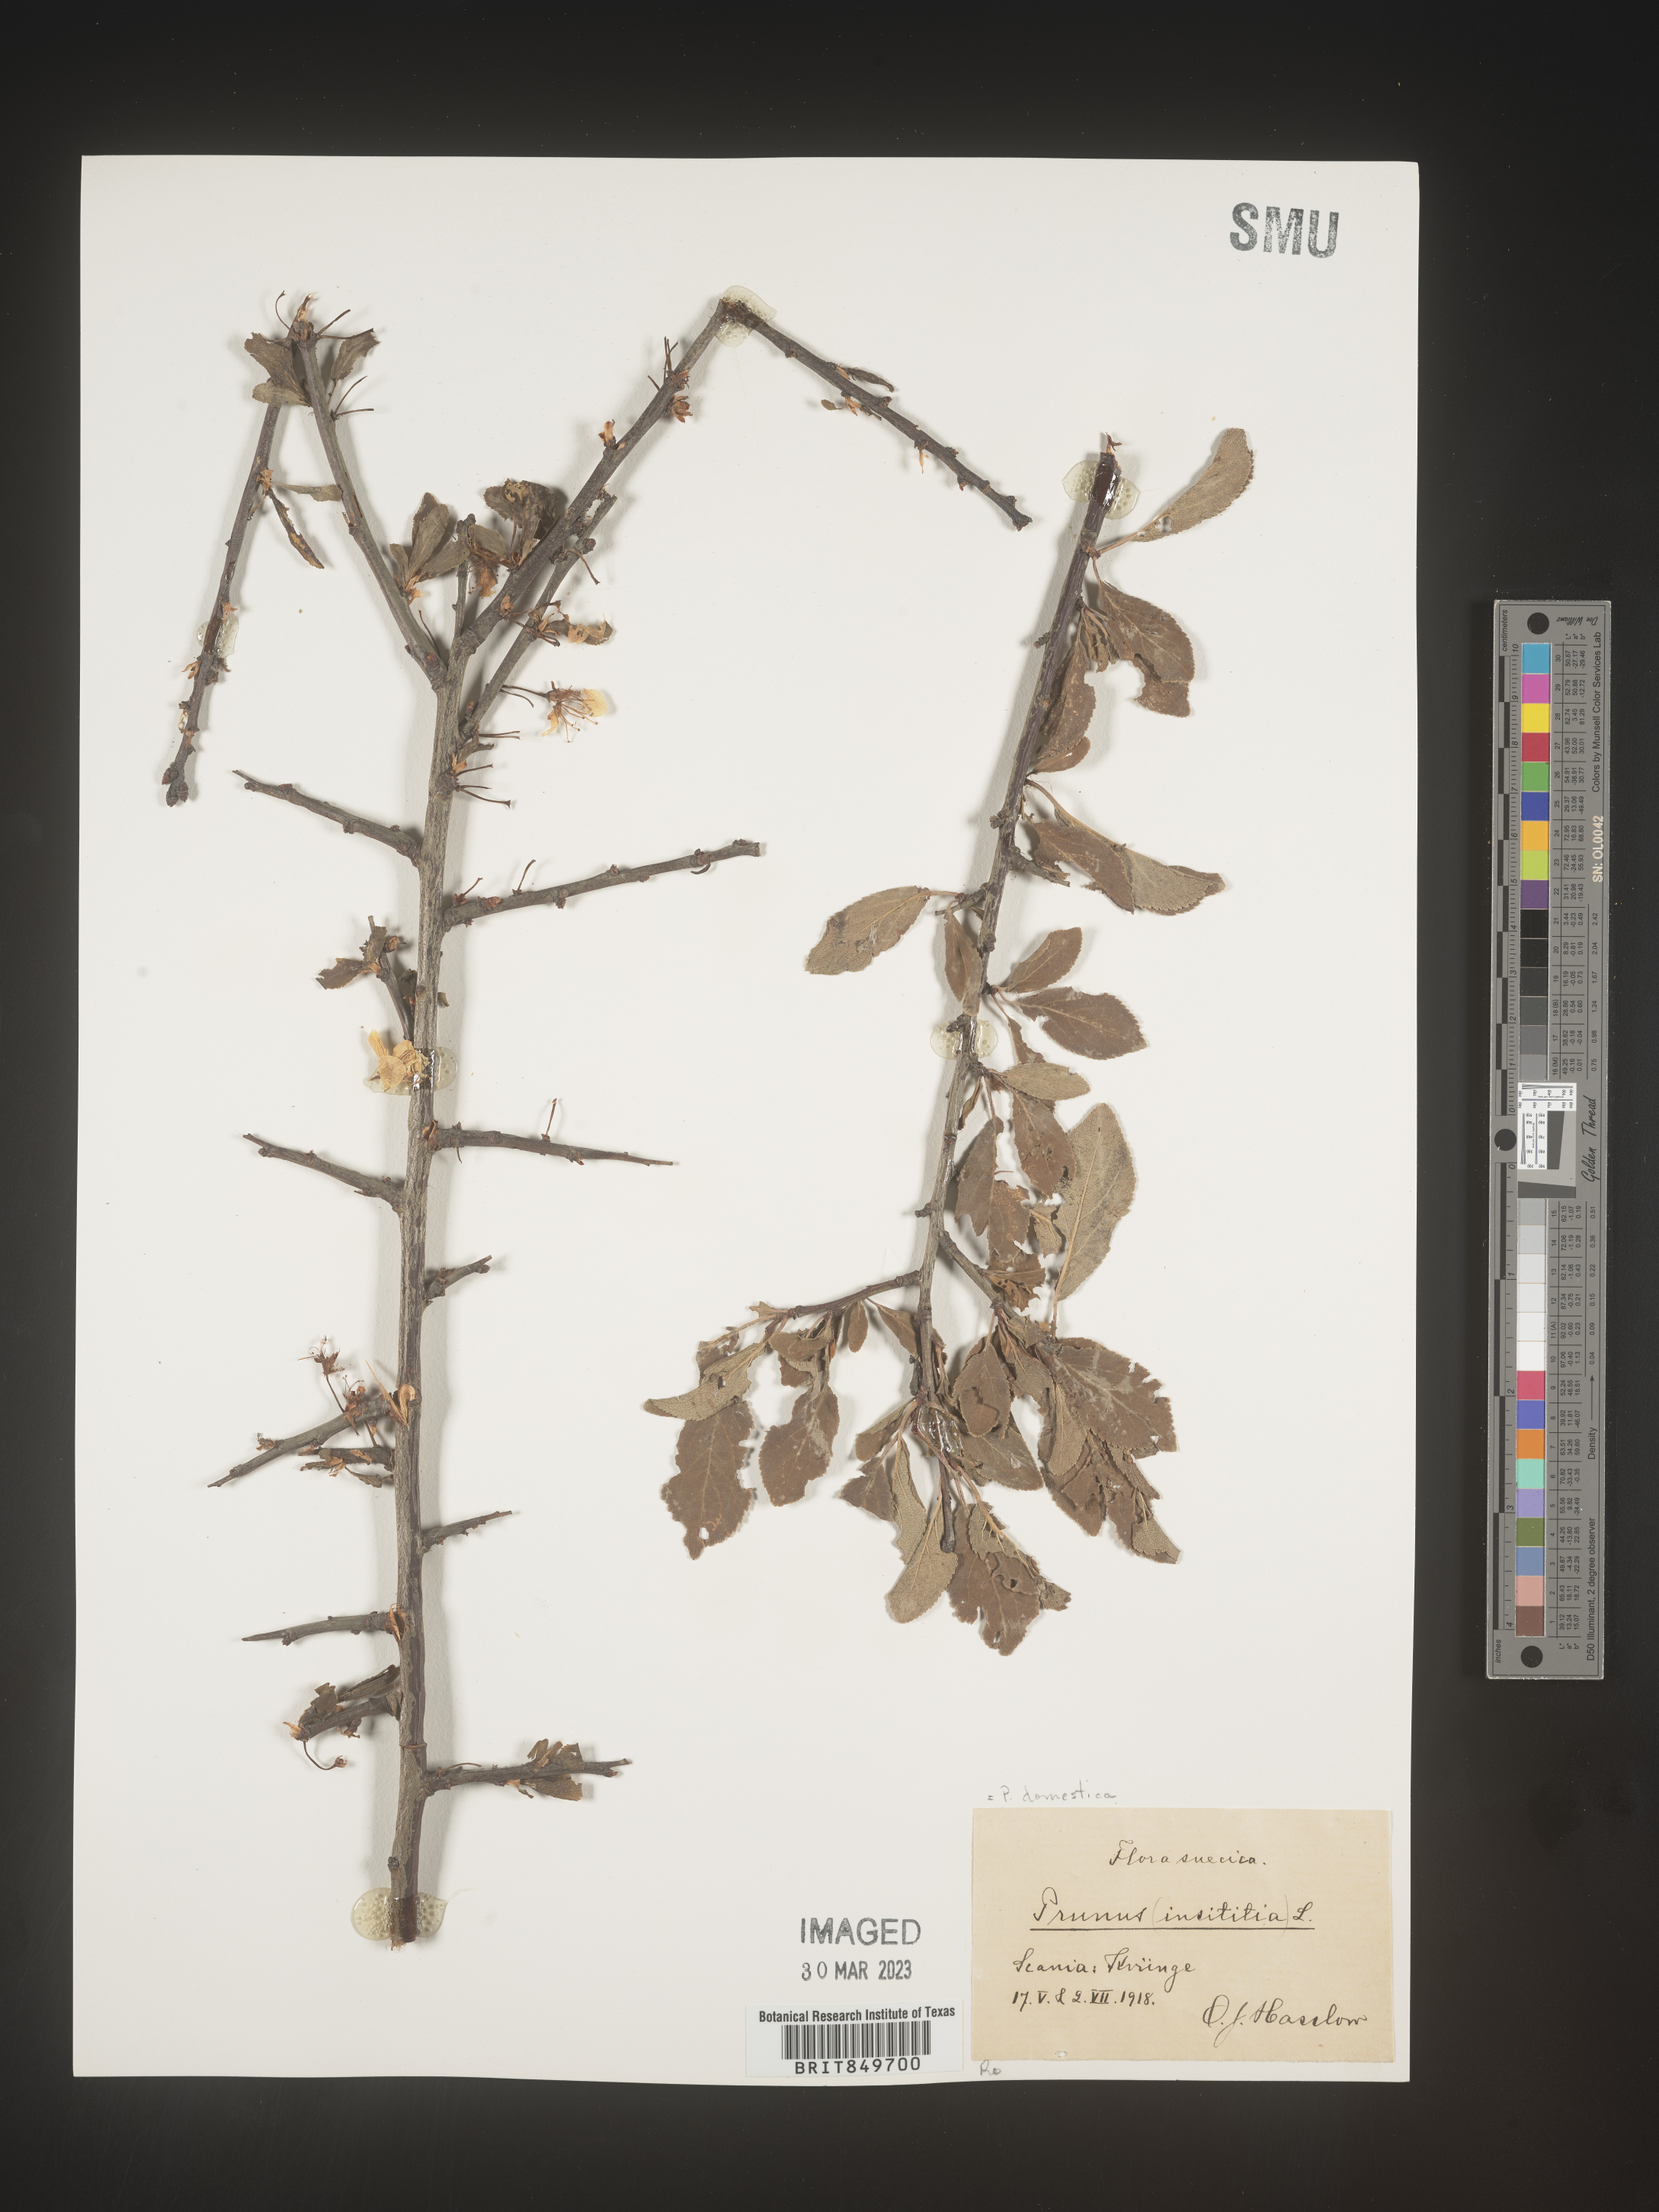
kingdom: Plantae
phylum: Tracheophyta
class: Magnoliopsida
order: Rosales
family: Rosaceae
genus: Prunus
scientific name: Prunus
